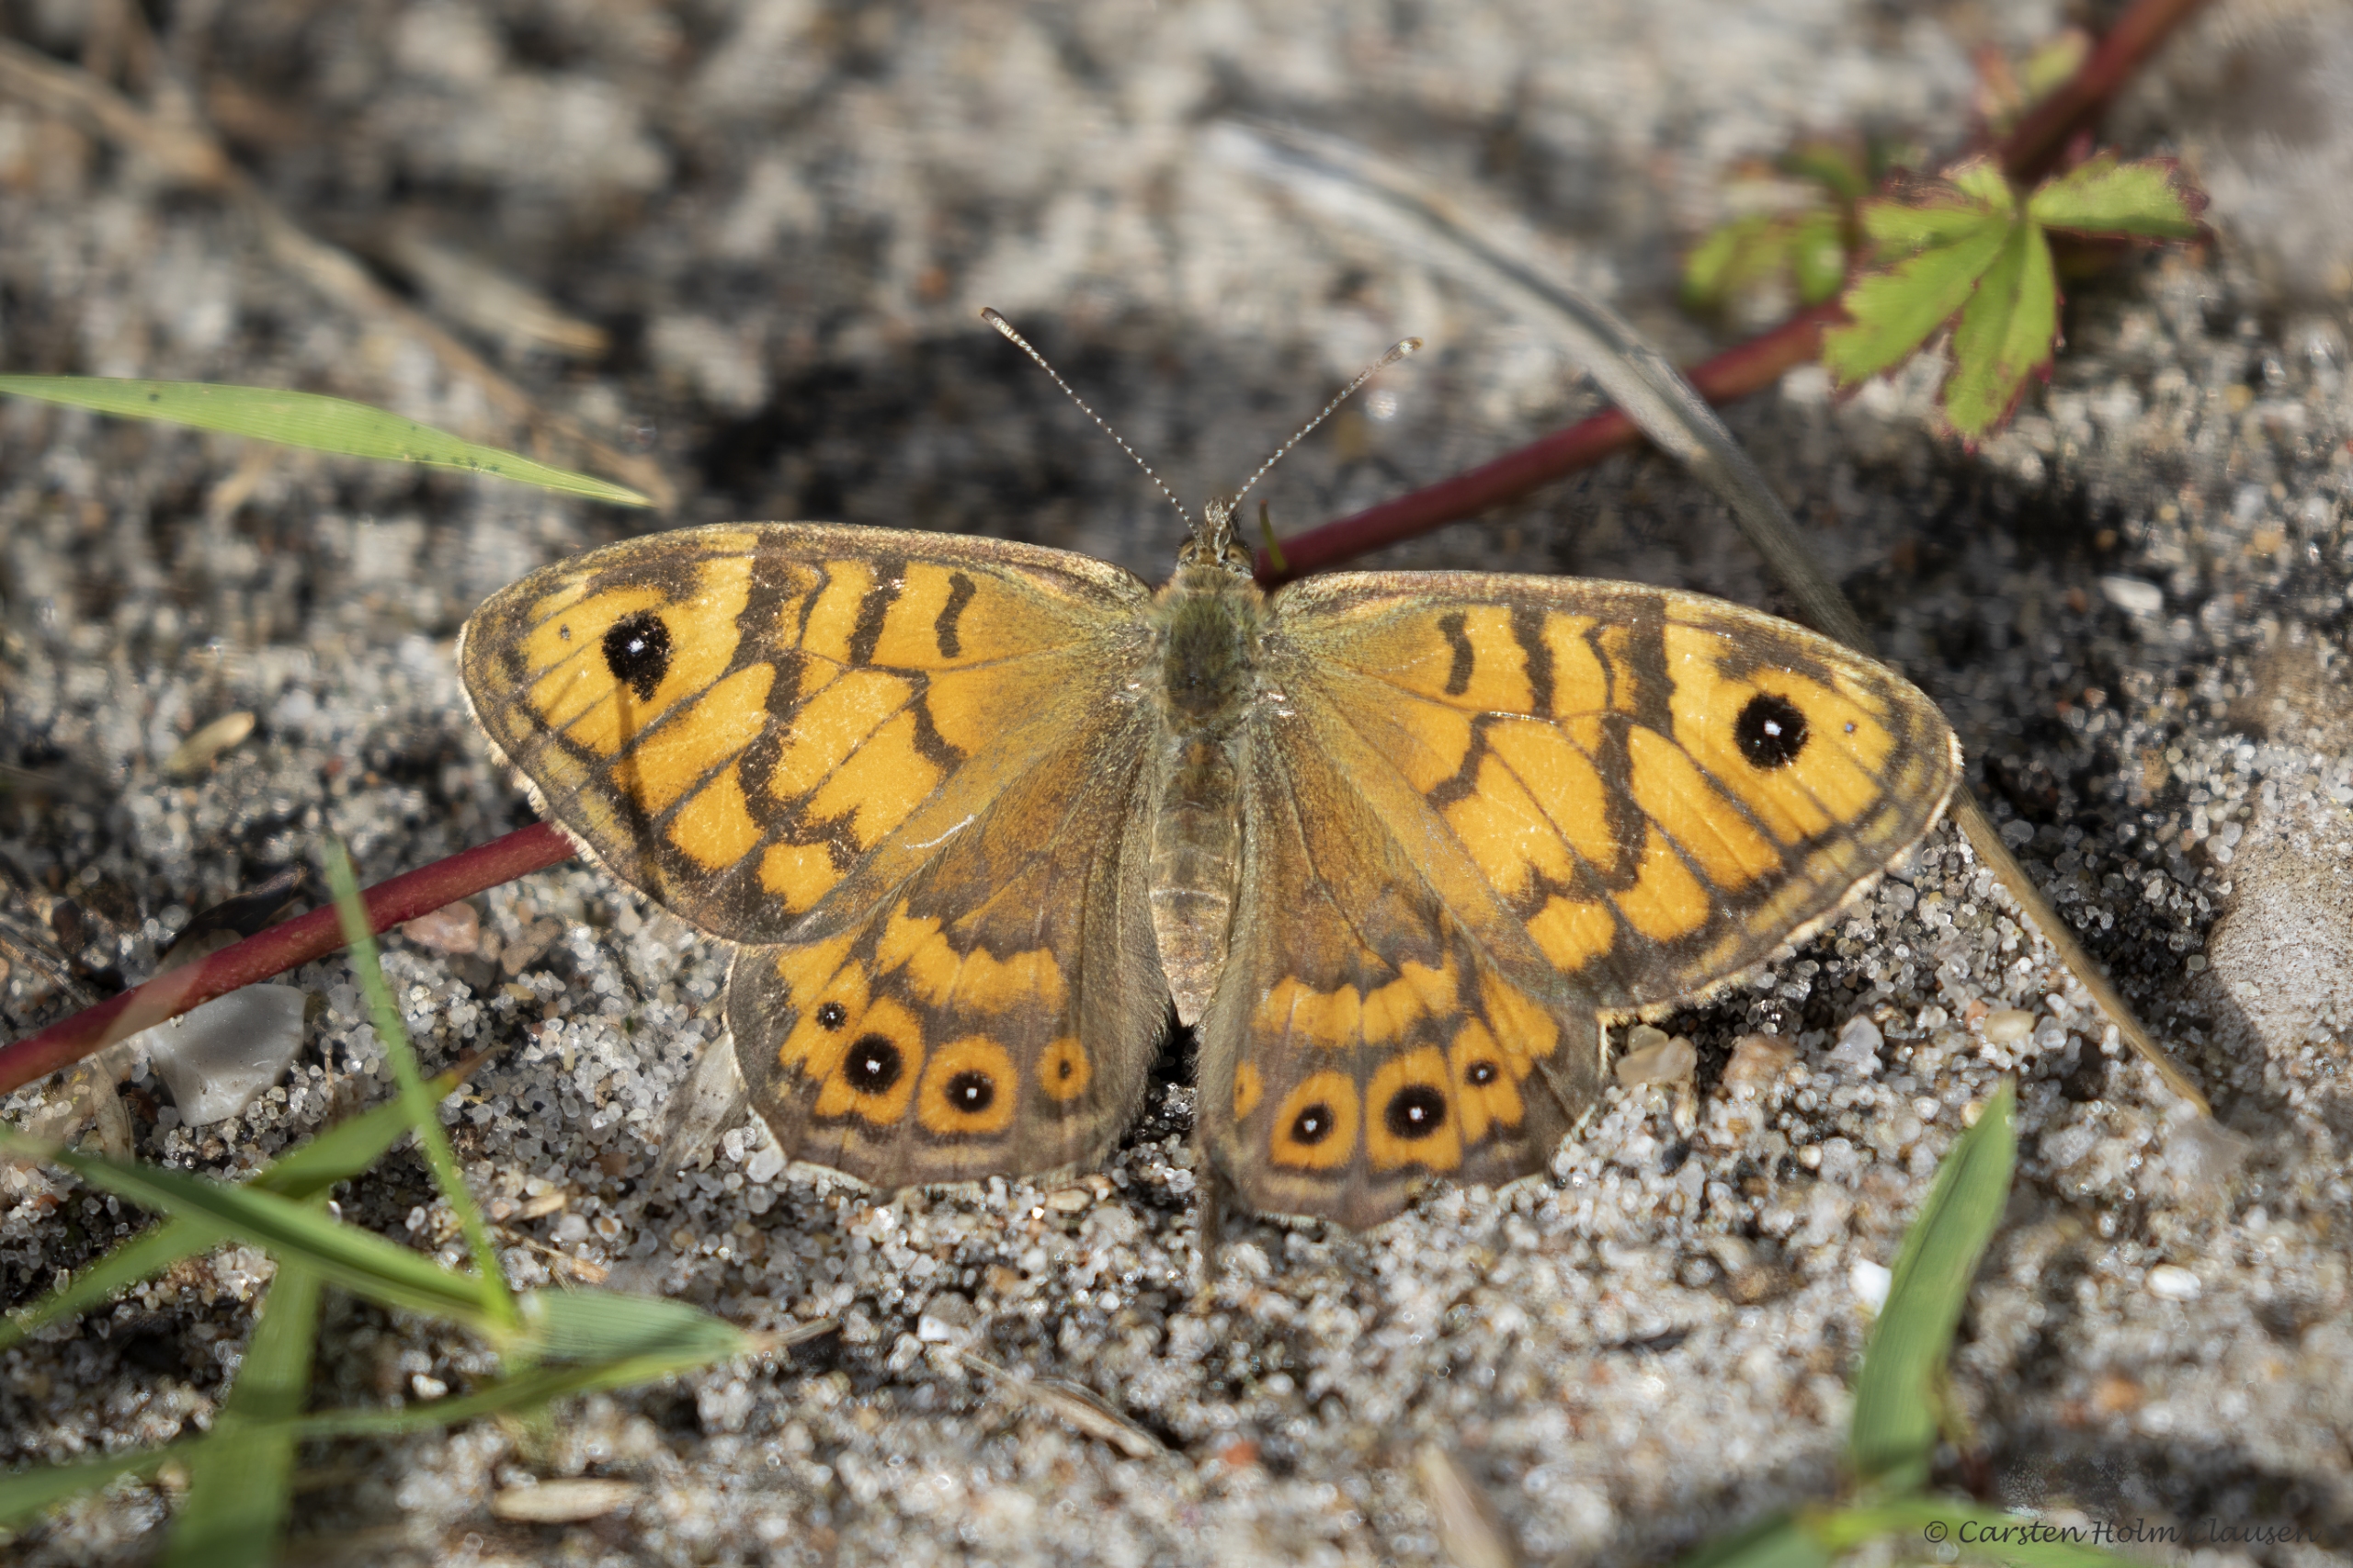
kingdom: Animalia
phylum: Arthropoda
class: Insecta
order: Lepidoptera
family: Nymphalidae
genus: Pararge
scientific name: Pararge Lasiommata megera
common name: Vejrandøje
